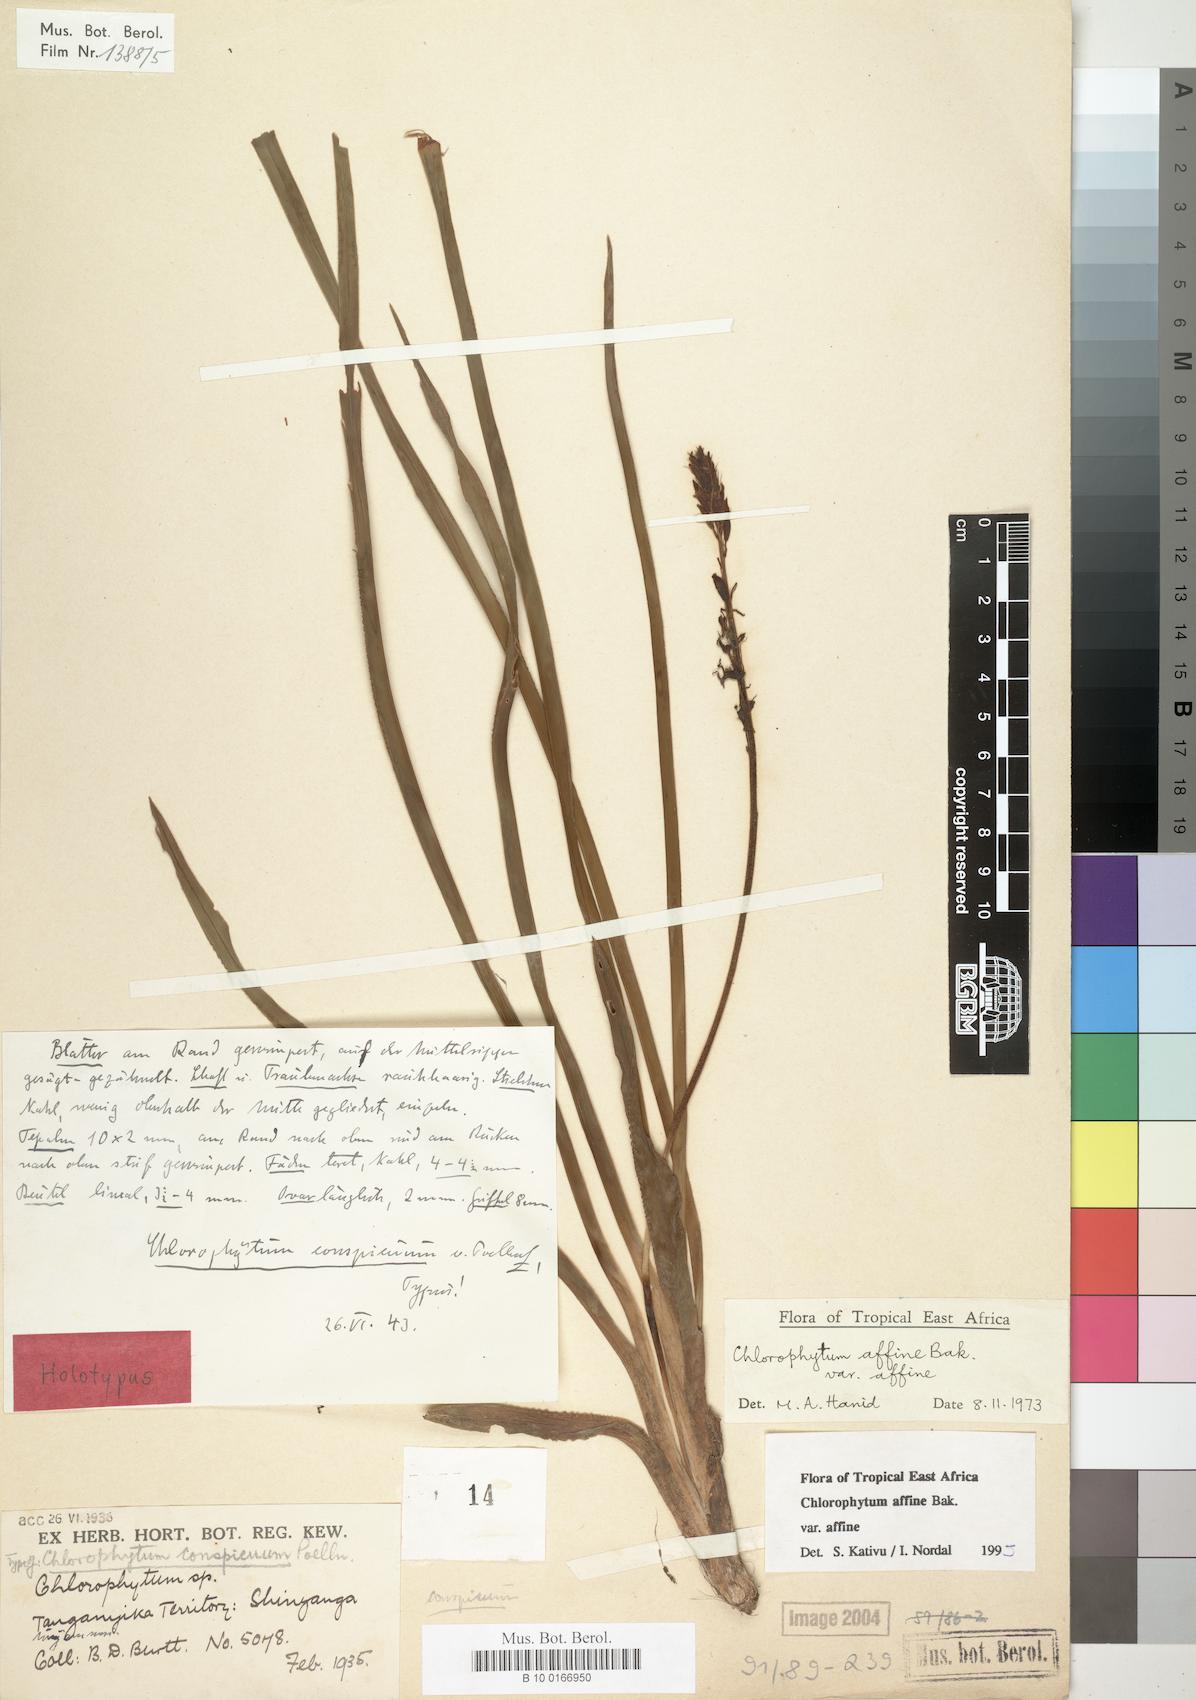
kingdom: Plantae
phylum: Tracheophyta
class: Liliopsida
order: Asparagales
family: Asparagaceae
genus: Chlorophytum
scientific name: Chlorophytum affine
